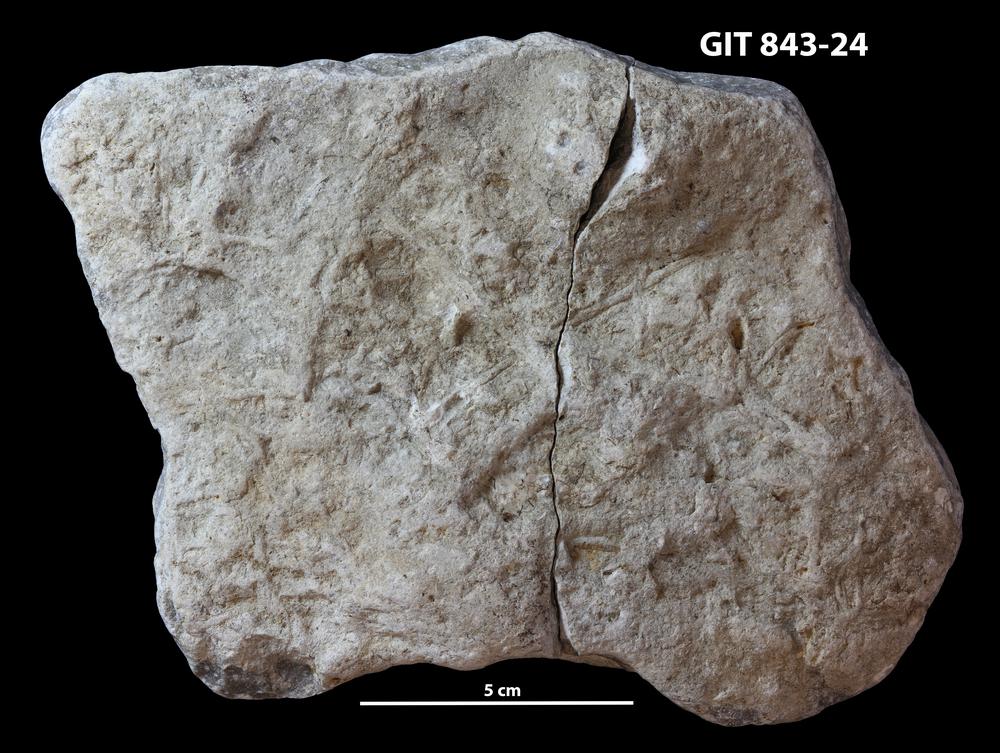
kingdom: Animalia
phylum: Bryozoa
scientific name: Bryozoa
